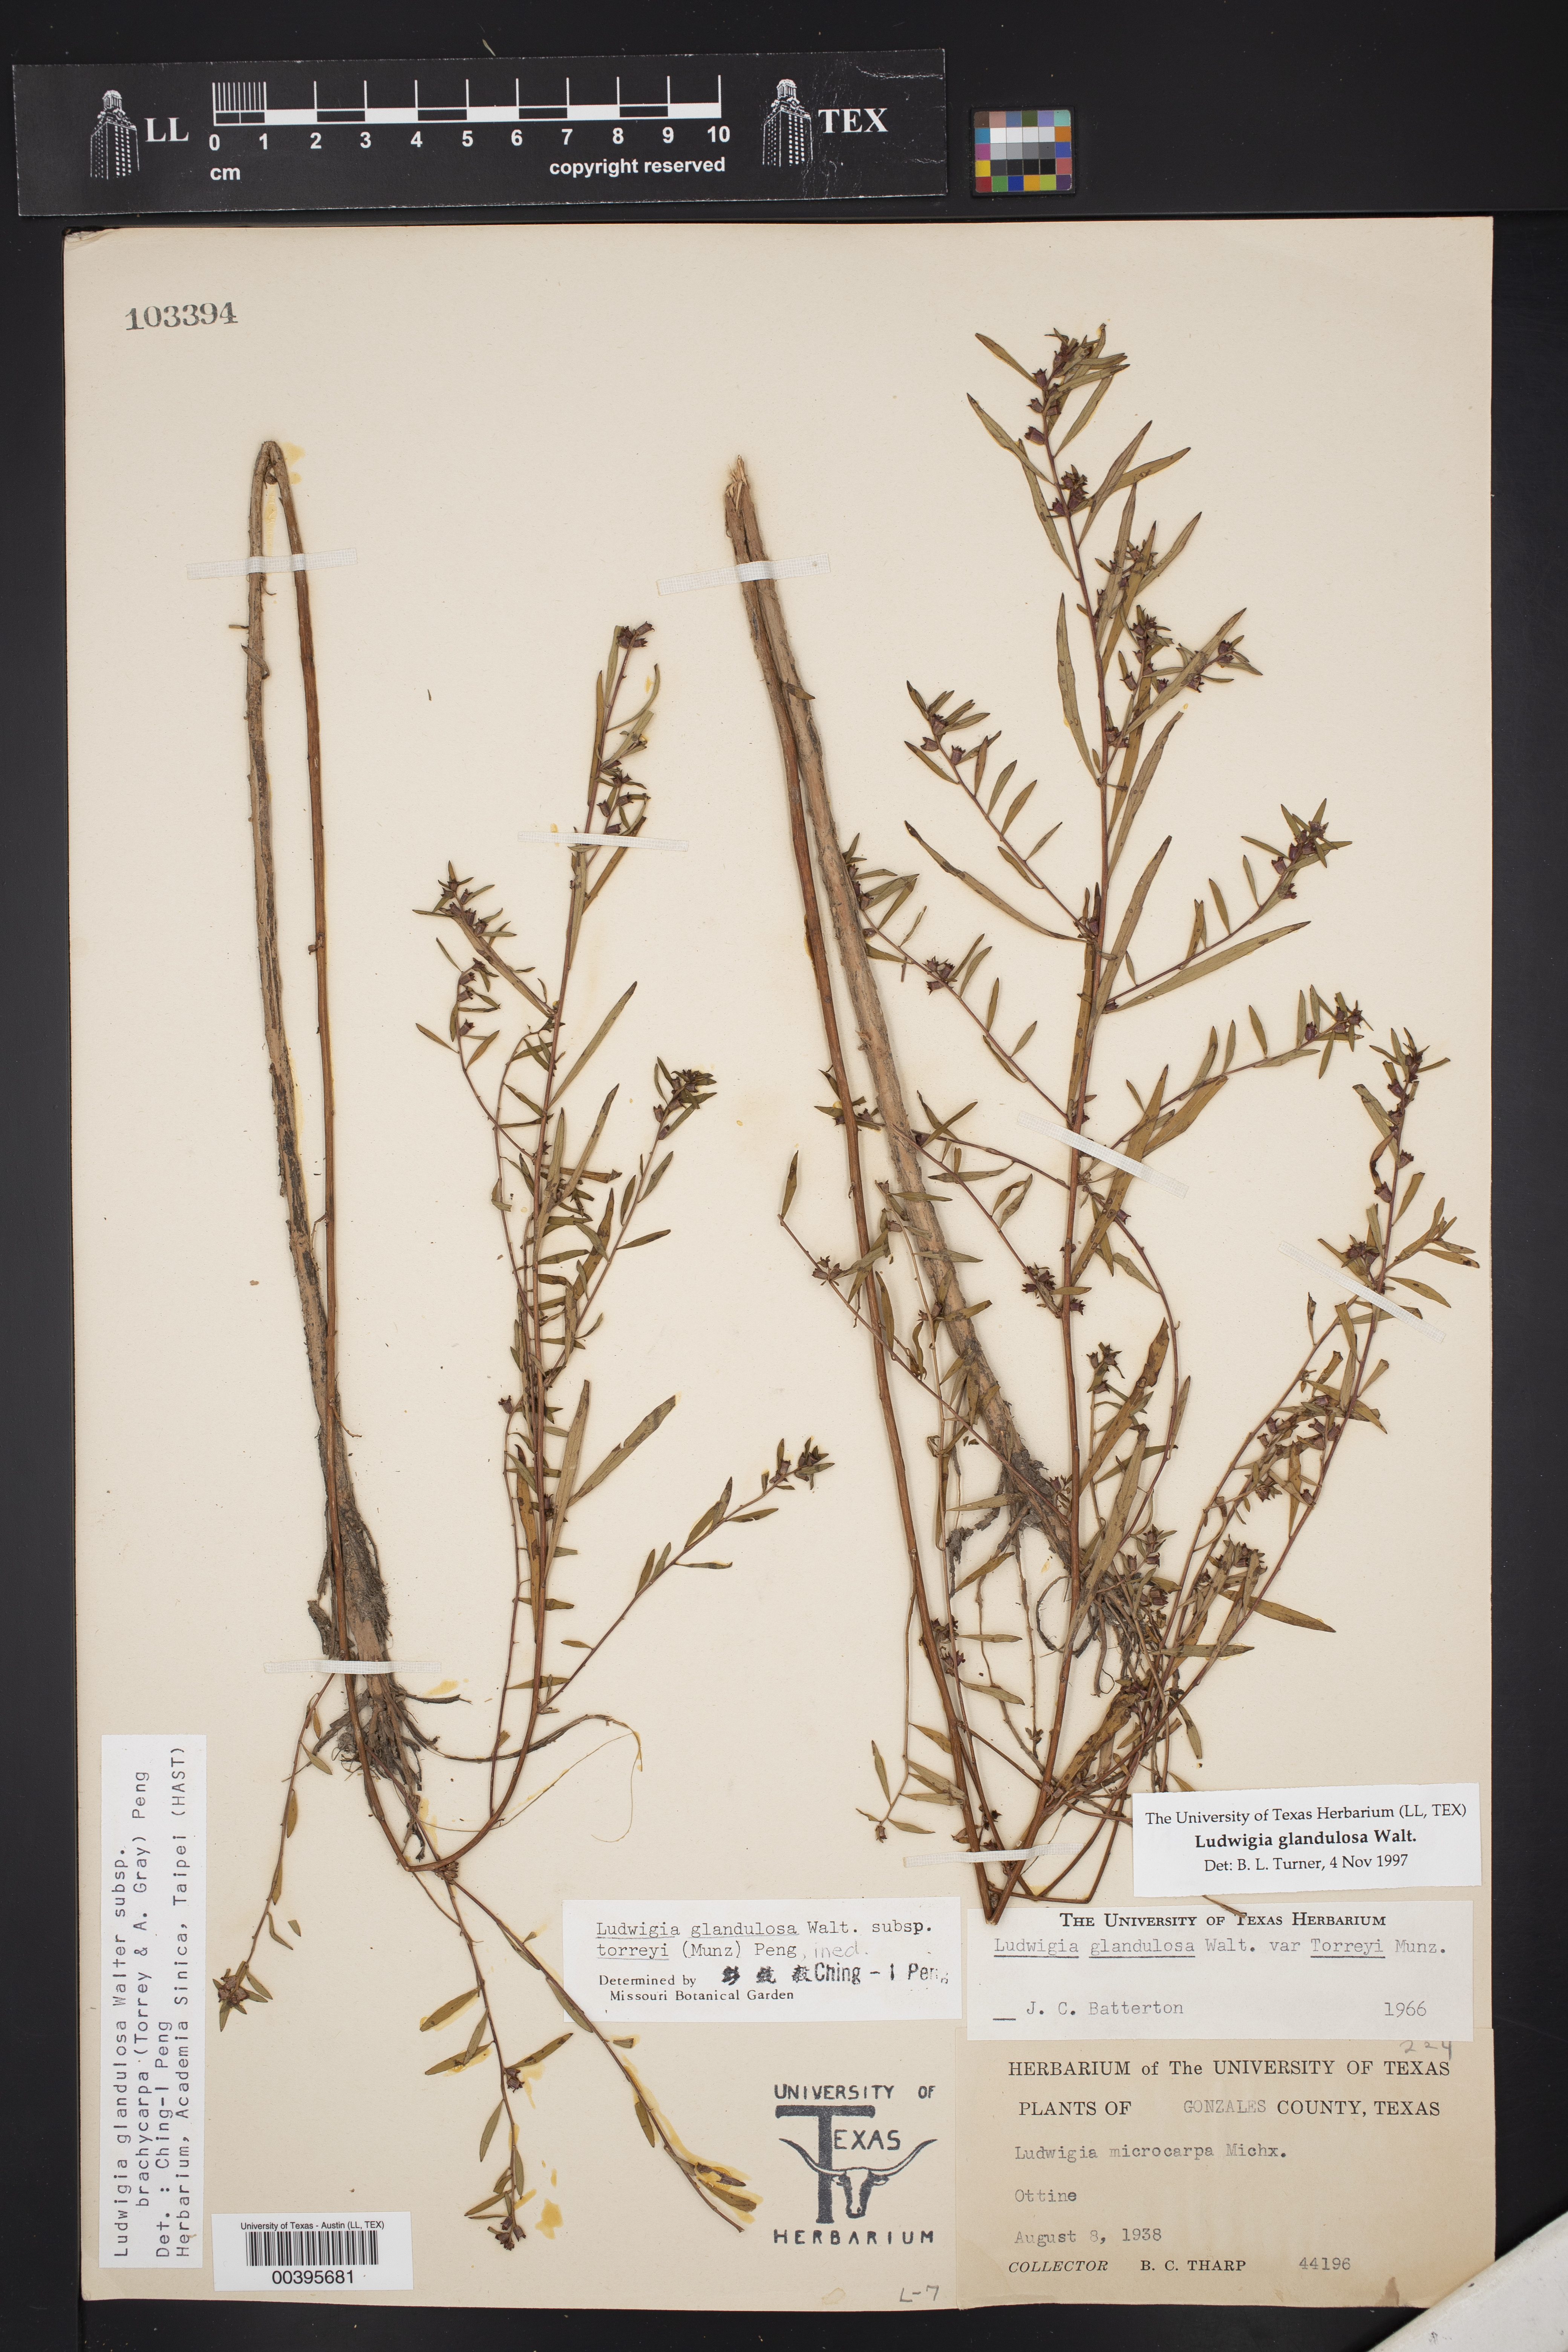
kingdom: Plantae
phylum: Tracheophyta
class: Magnoliopsida
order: Myrtales
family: Onagraceae
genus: Ludwigia
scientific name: Ludwigia glandulosa
